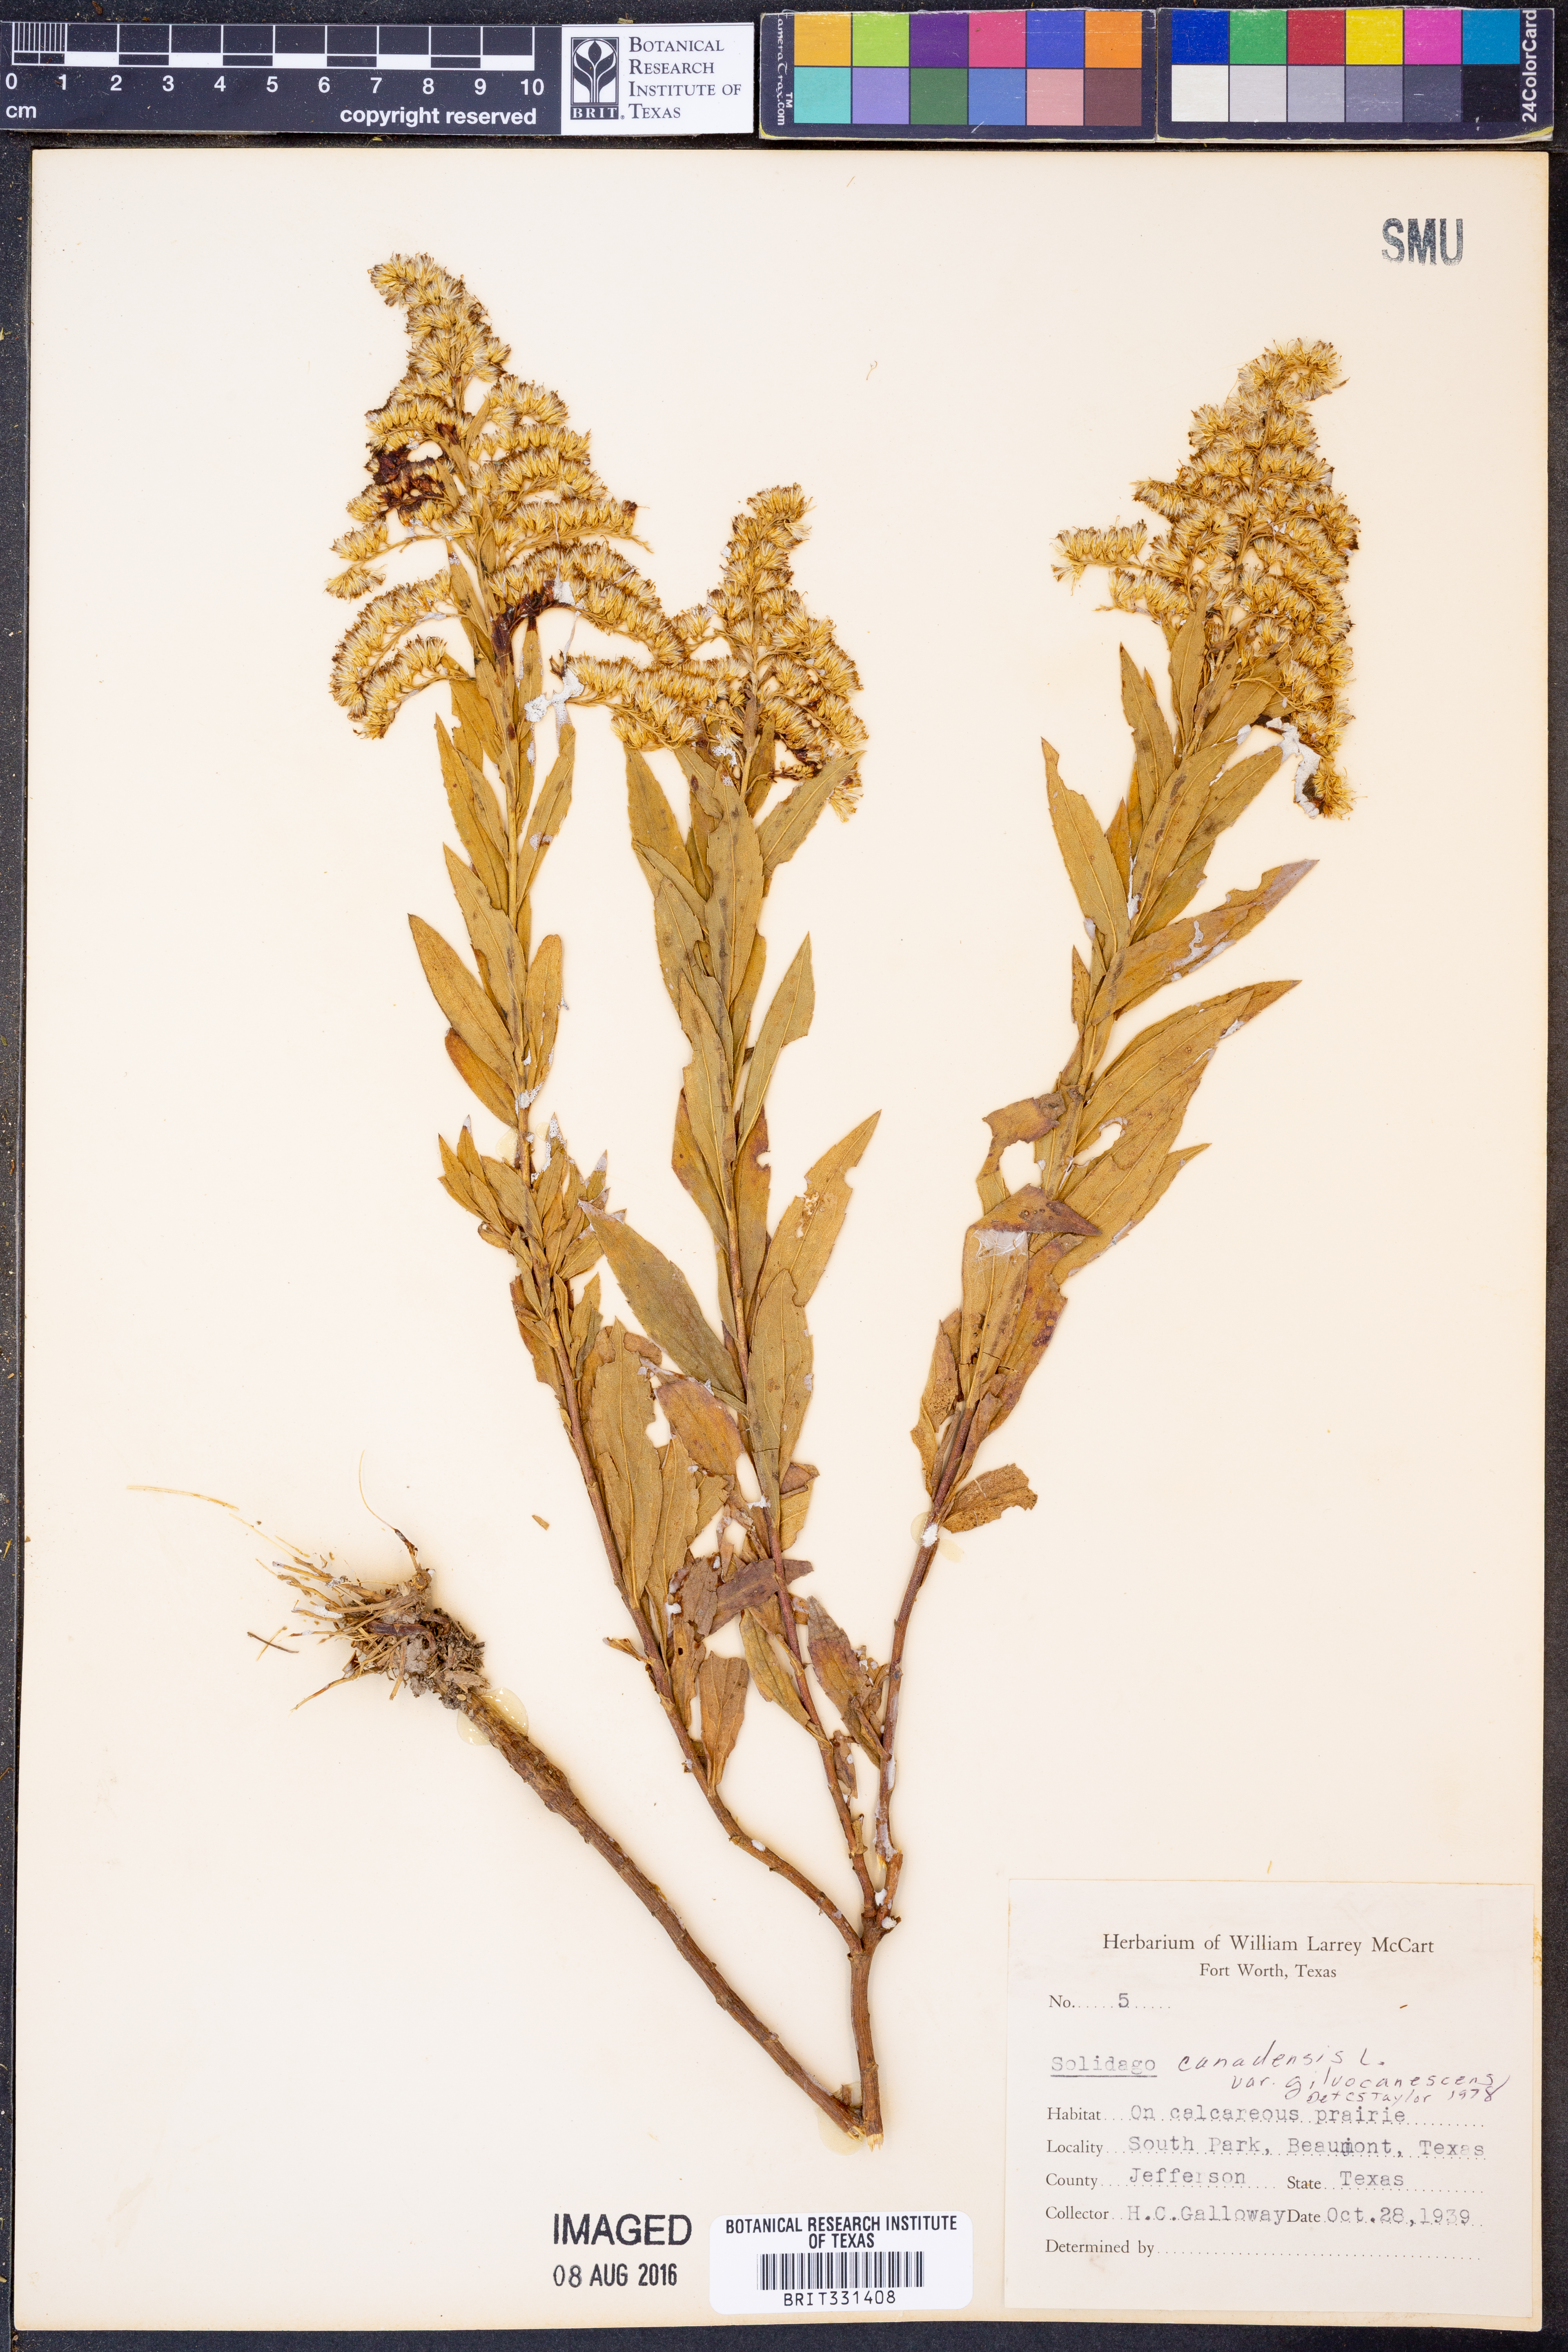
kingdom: Plantae
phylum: Tracheophyta
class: Magnoliopsida
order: Asterales
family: Asteraceae
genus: Solidago
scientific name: Solidago altissima
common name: Late goldenrod
